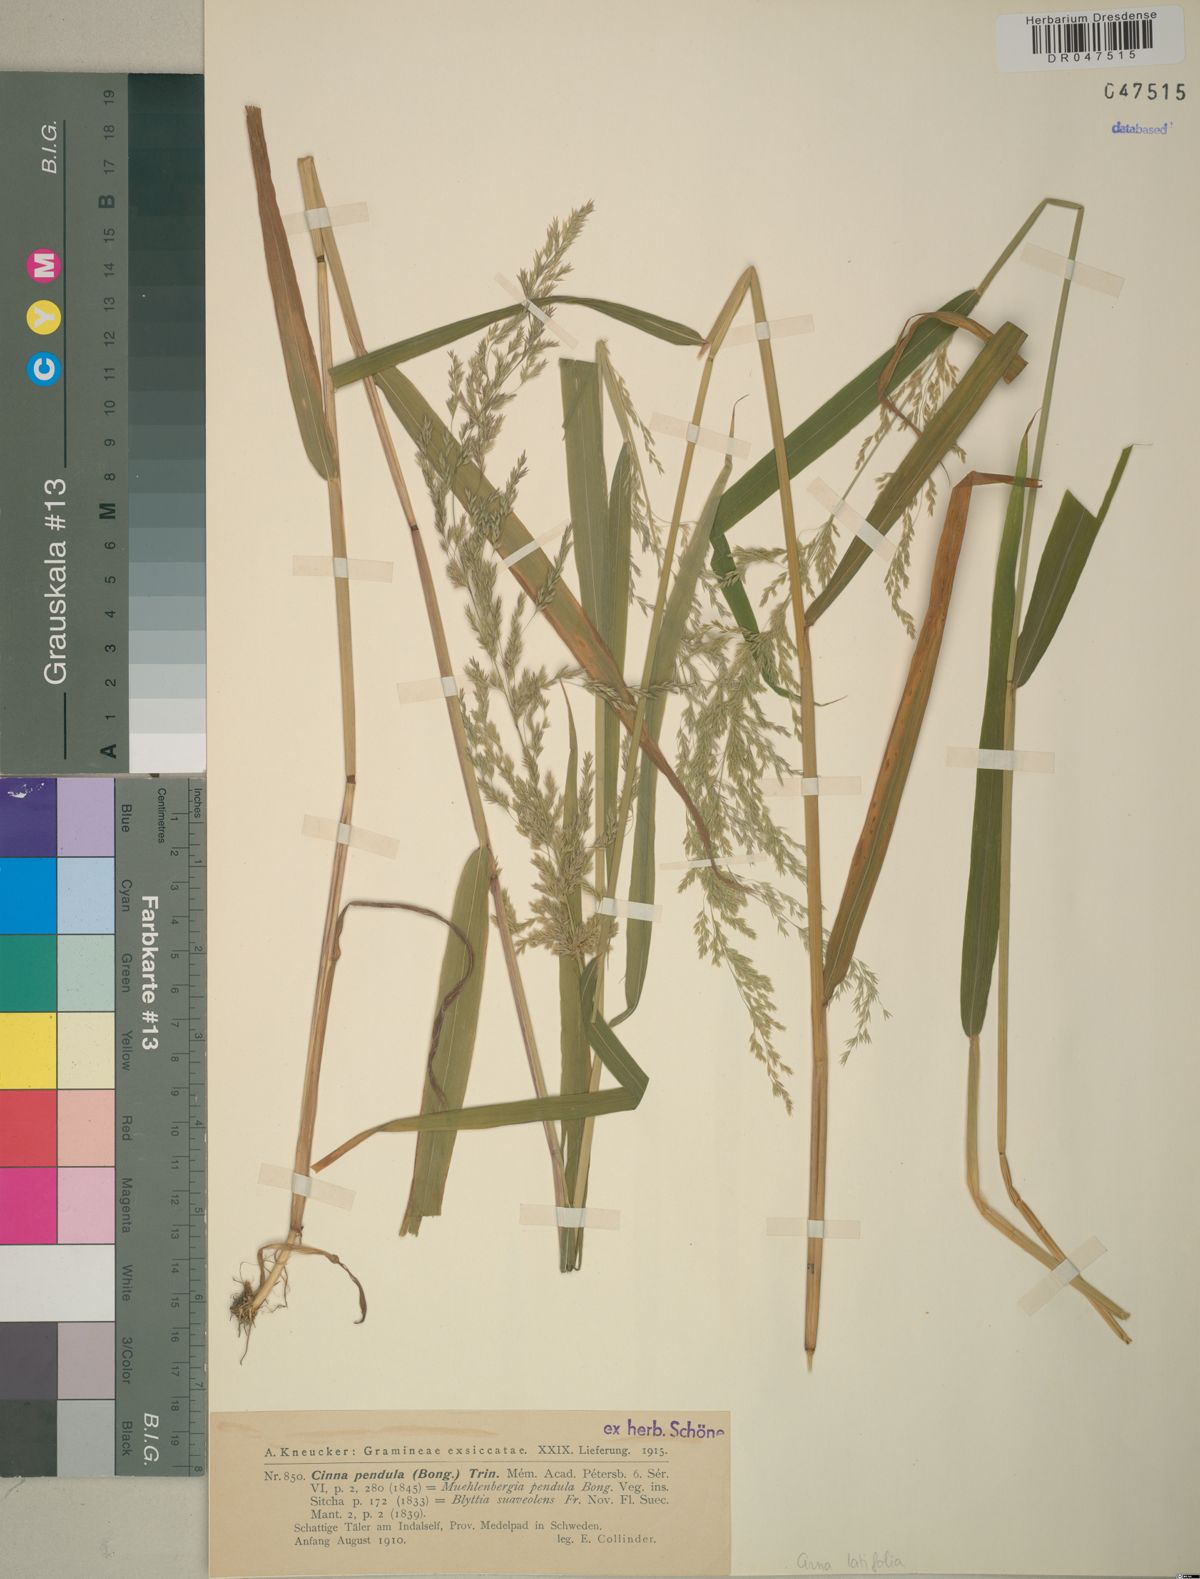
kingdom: Plantae
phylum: Tracheophyta
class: Liliopsida
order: Poales
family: Poaceae
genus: Cinna
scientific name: Cinna latifolia
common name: Drooping woodreed
